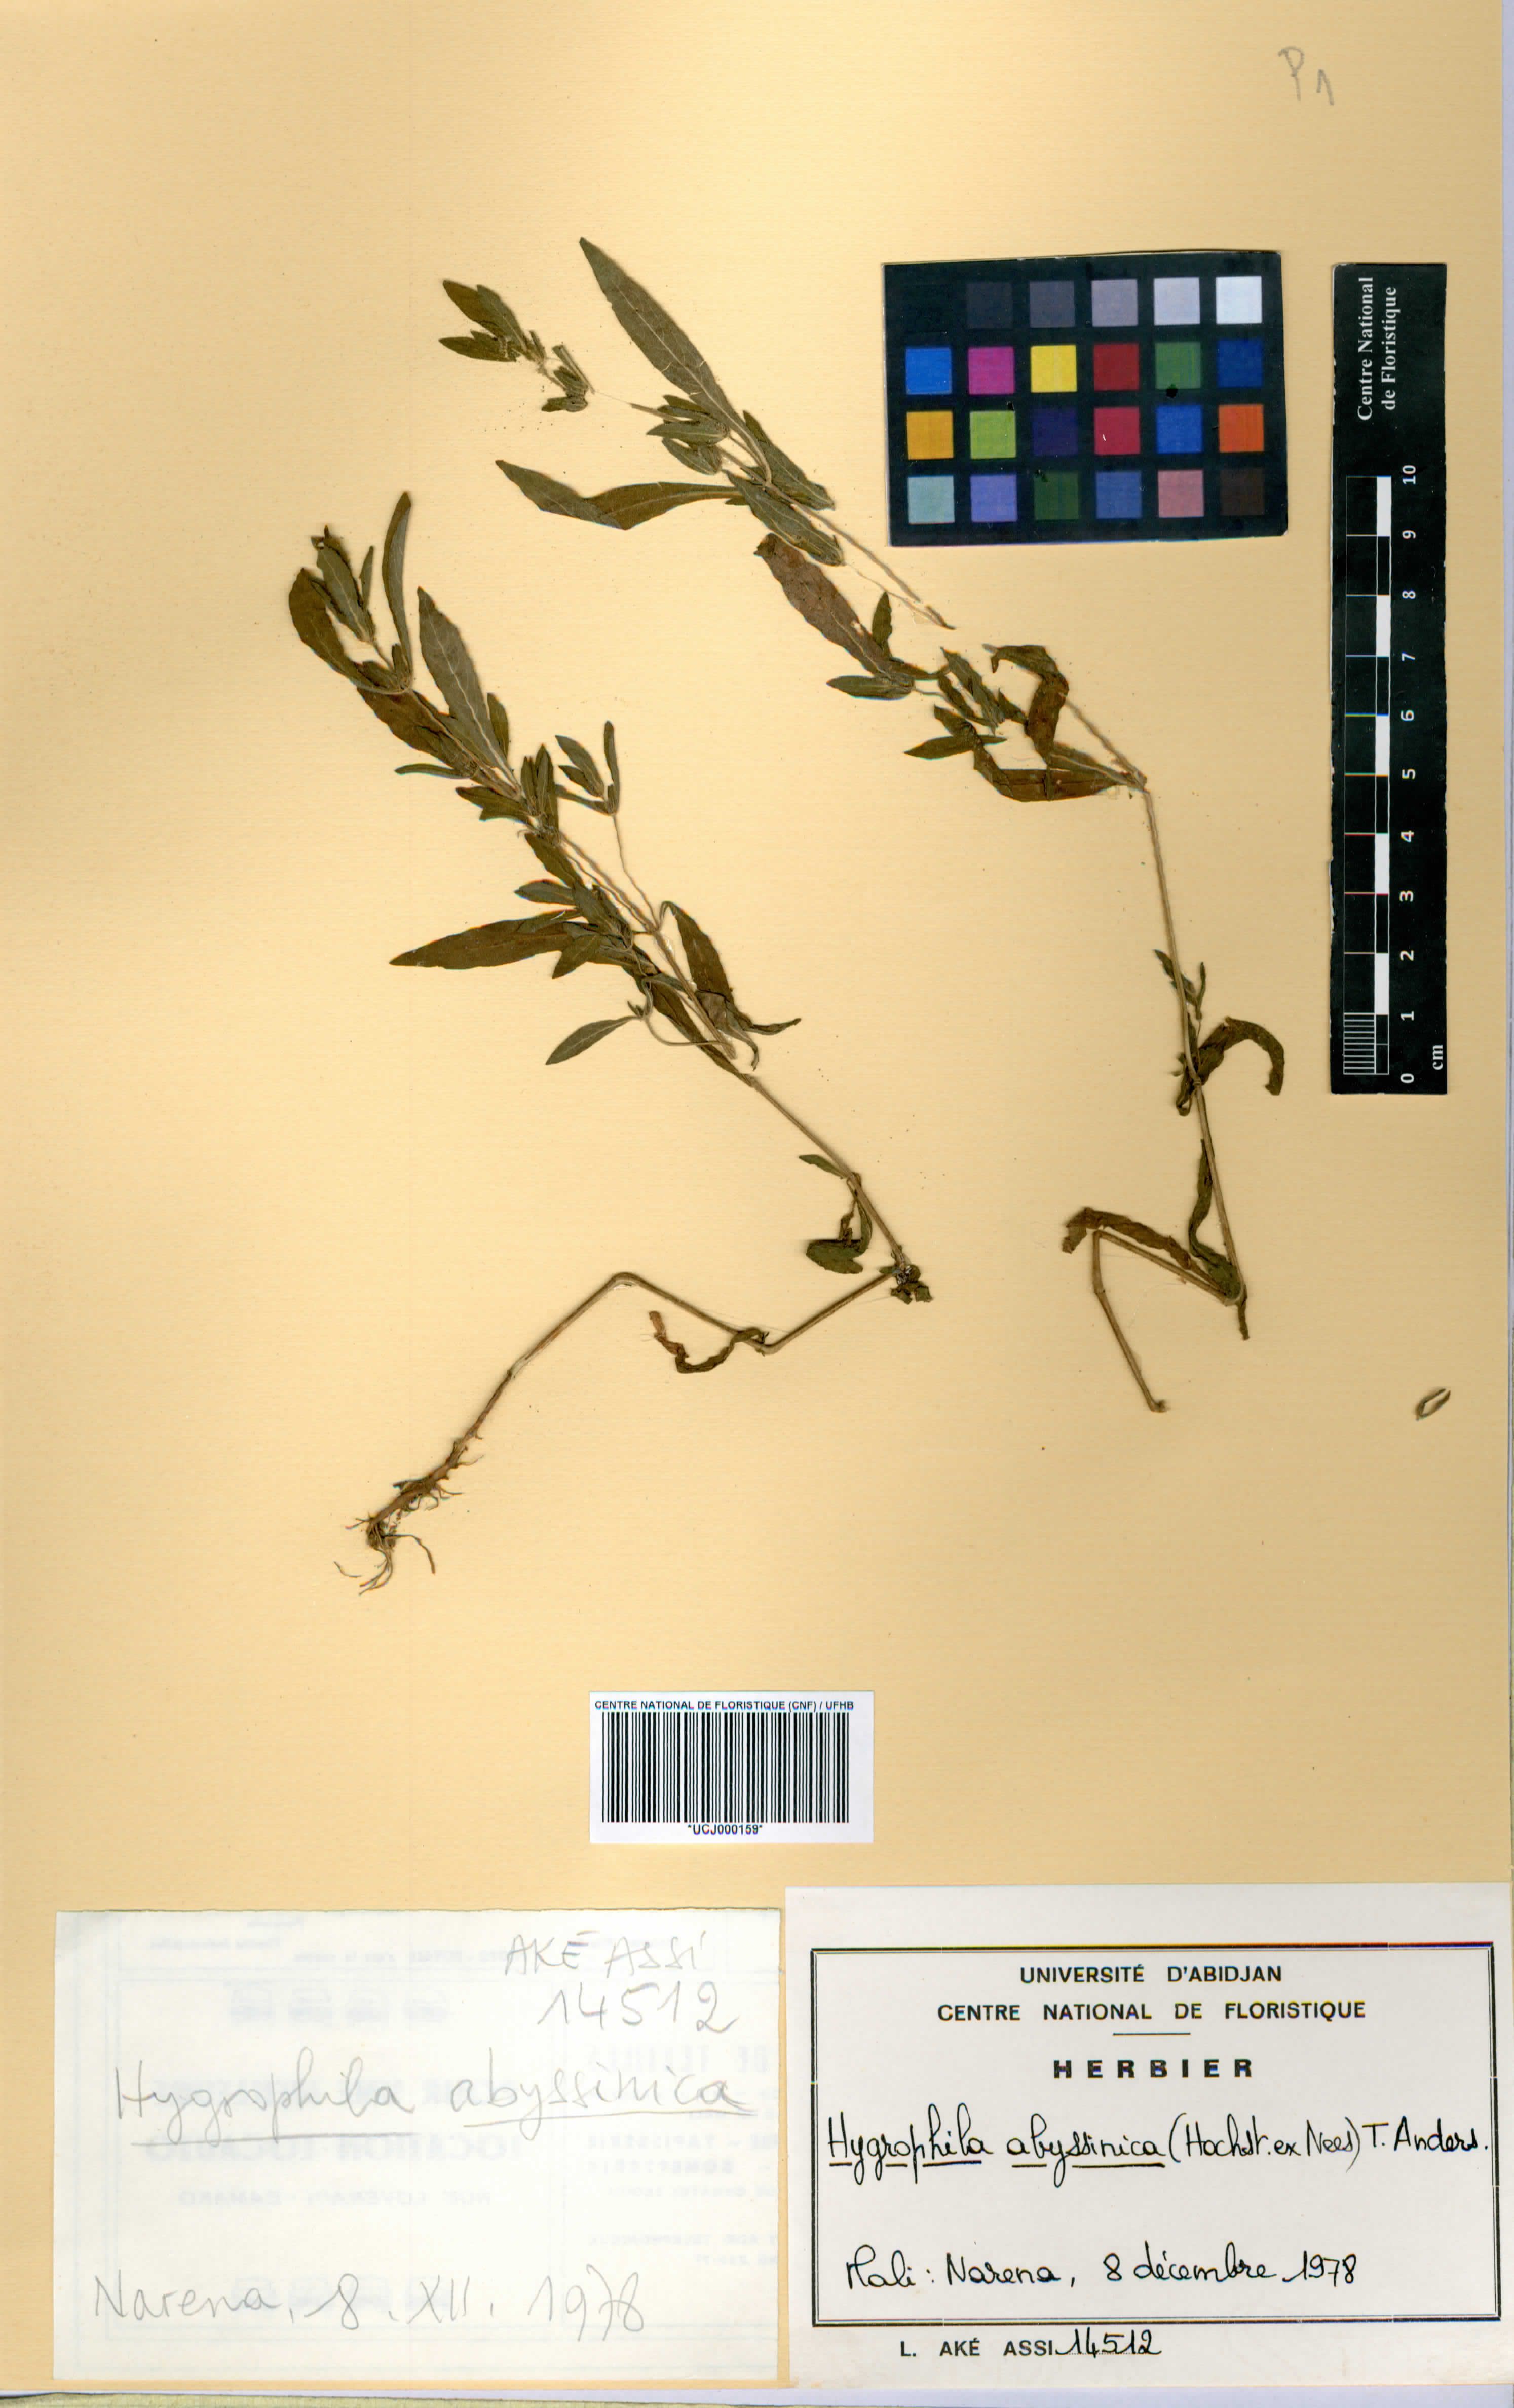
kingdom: Plantae
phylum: Tracheophyta
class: Magnoliopsida
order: Lamiales
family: Acanthaceae
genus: Hygrophila
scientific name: Hygrophila abyssinica
